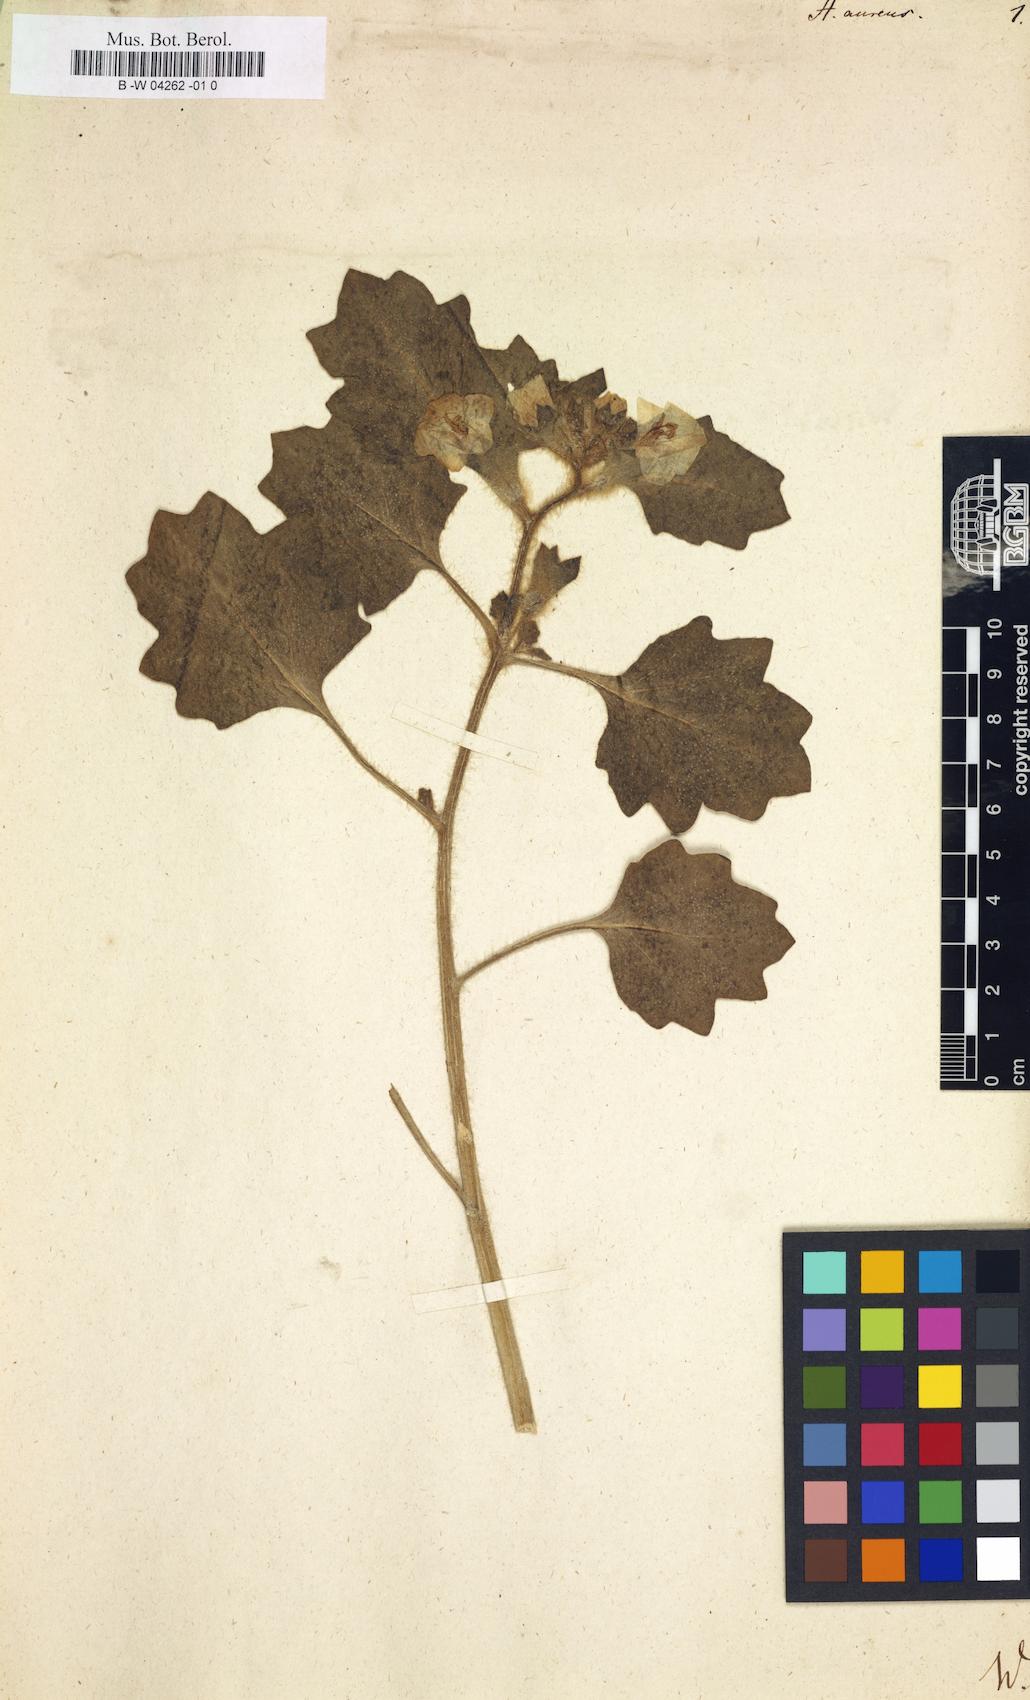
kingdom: Plantae
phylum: Tracheophyta
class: Magnoliopsida
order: Solanales
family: Solanaceae
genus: Hyoscyamus
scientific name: Hyoscyamus aureus
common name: Golden henbane
